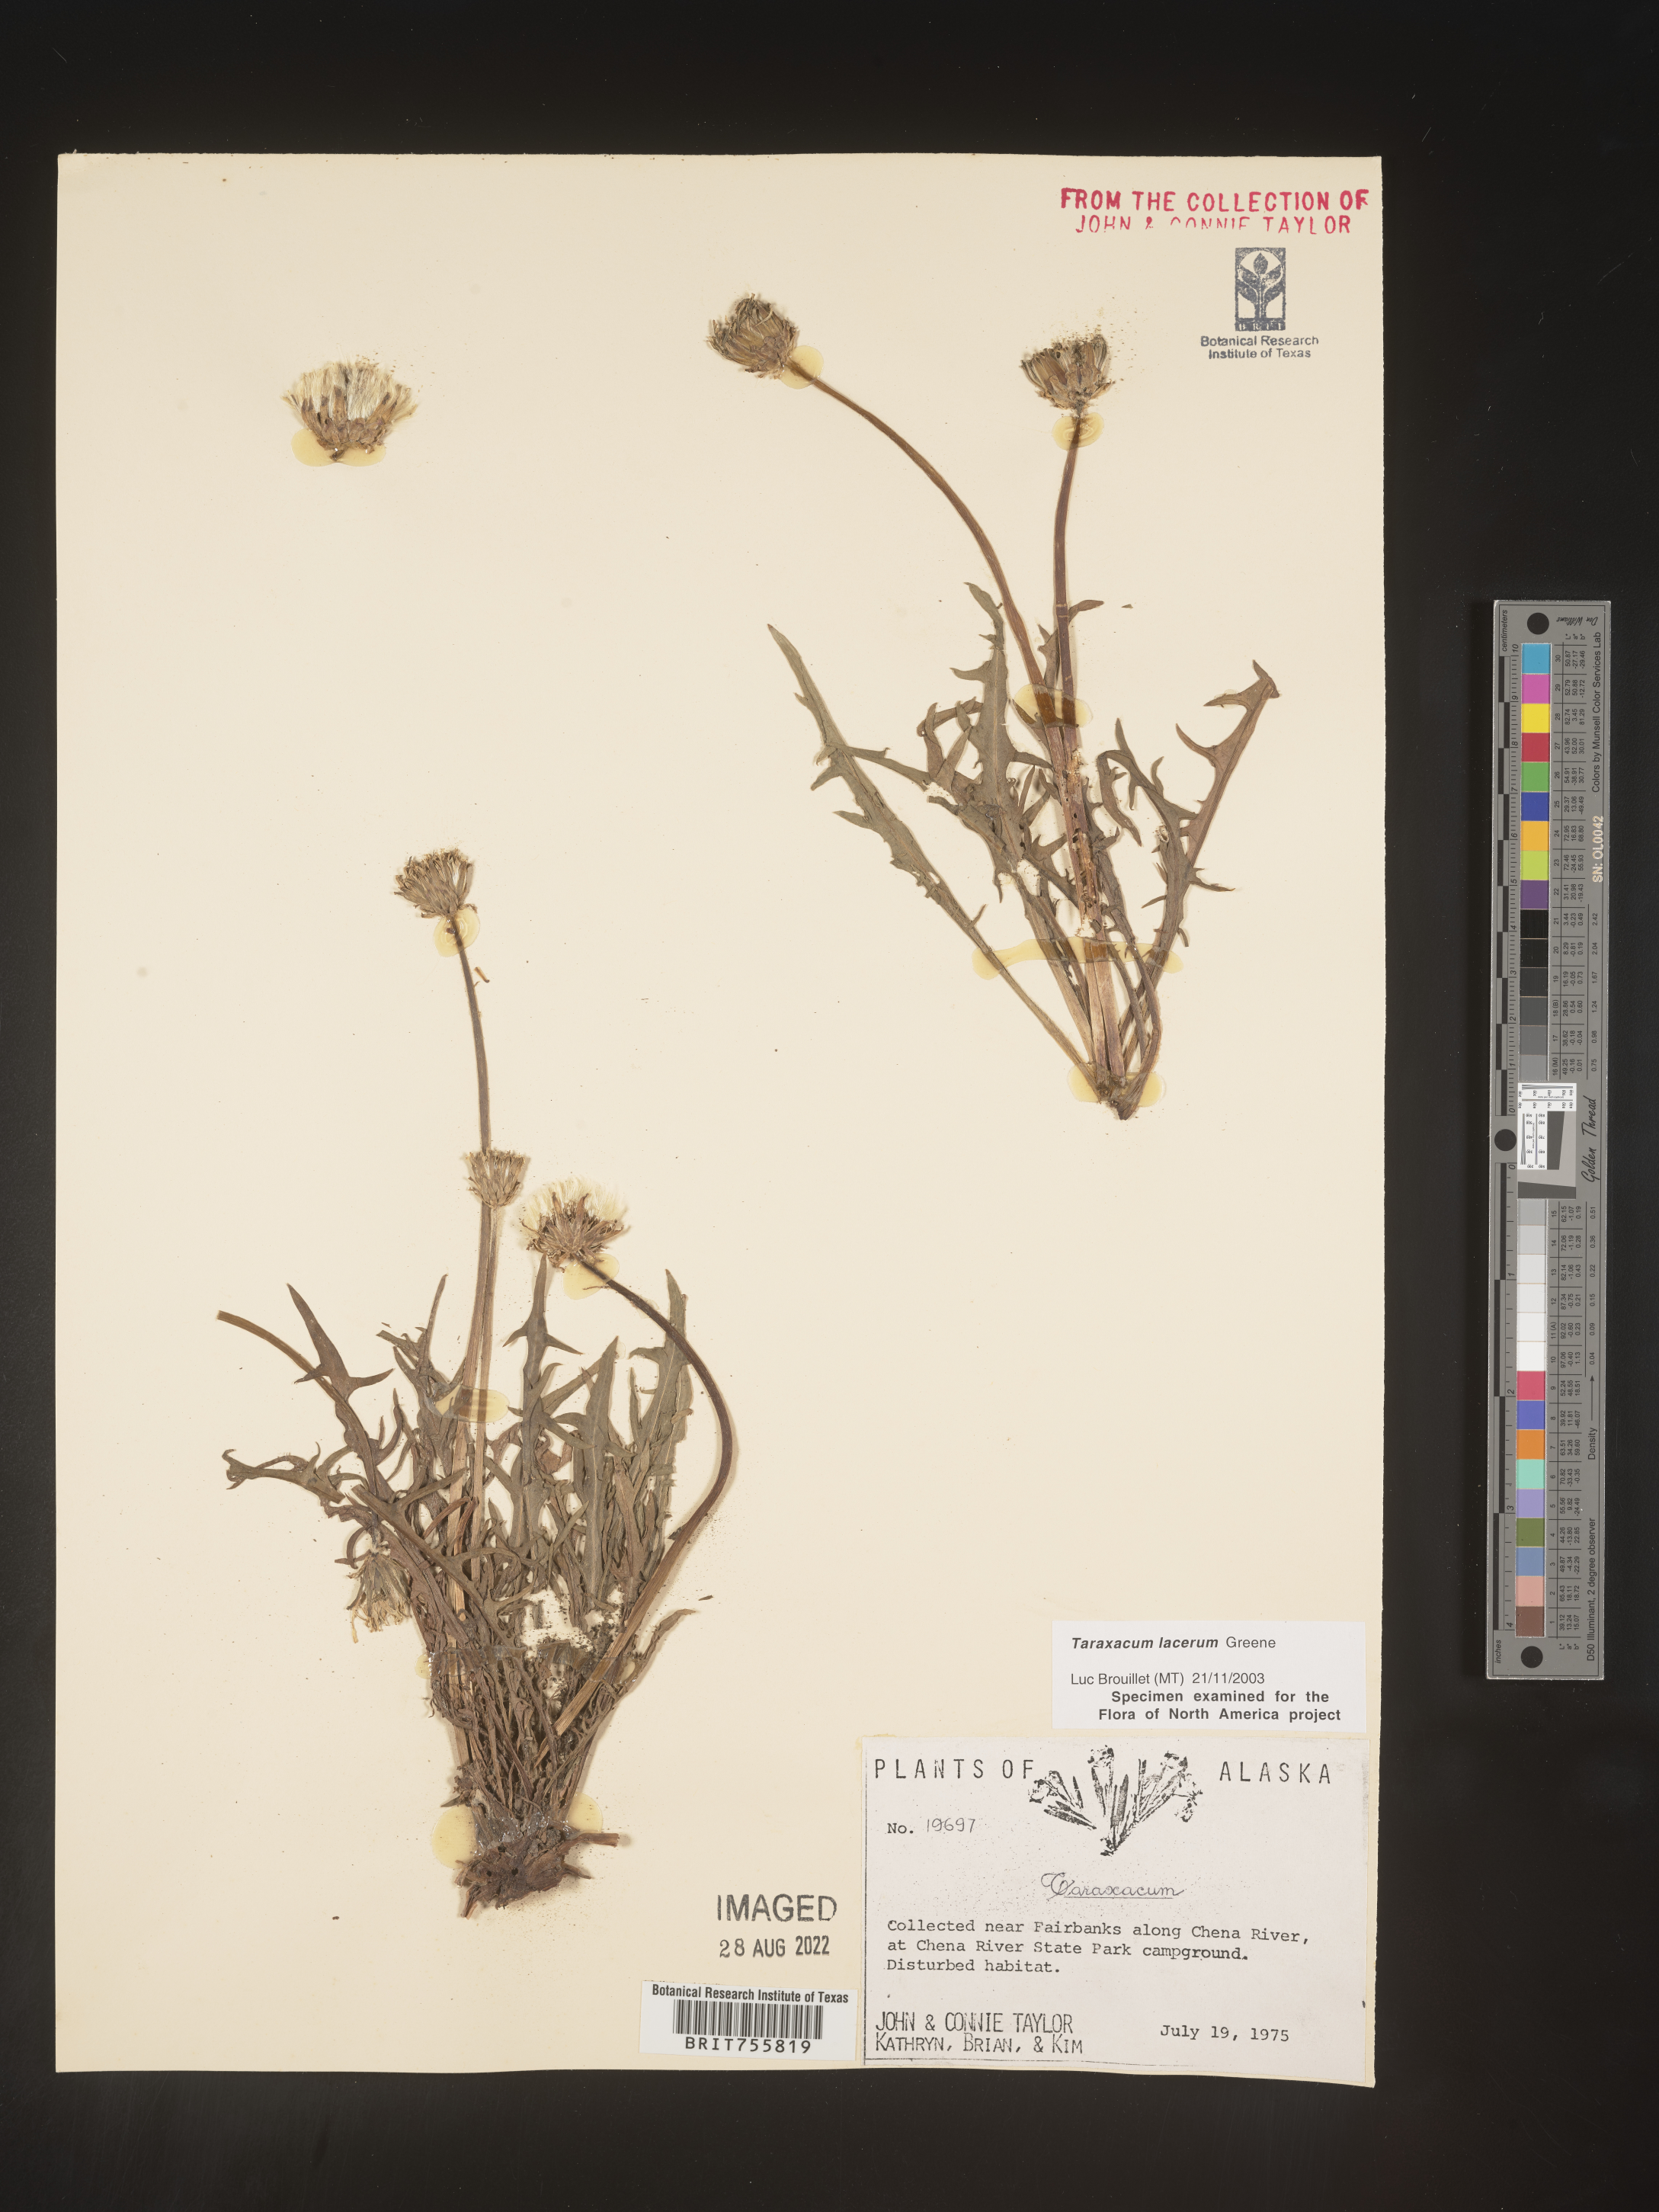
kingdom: Plantae
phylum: Tracheophyta
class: Magnoliopsida
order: Asterales
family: Asteraceae
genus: Taraxacum
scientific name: Taraxacum
